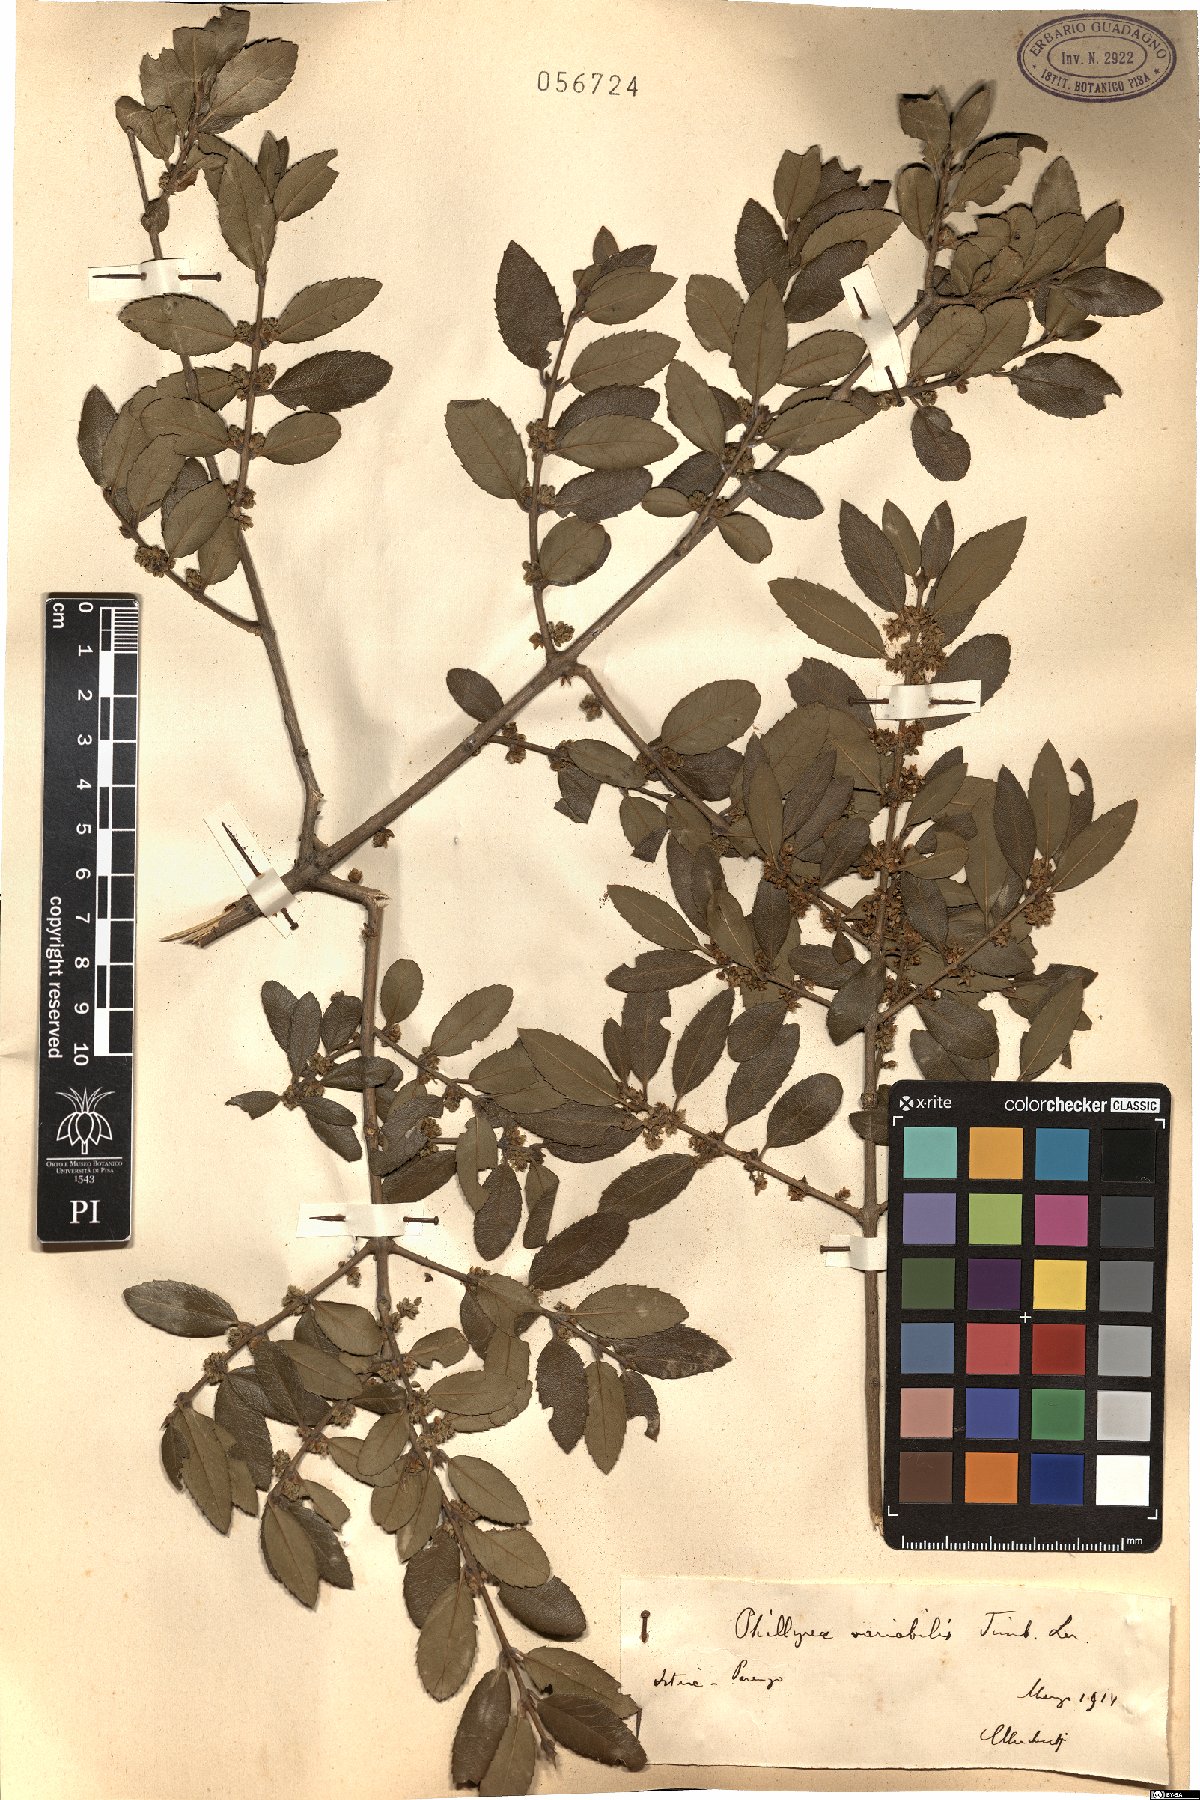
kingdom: Plantae
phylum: Tracheophyta
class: Magnoliopsida
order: Lamiales
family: Oleaceae
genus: Phillyrea
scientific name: Phillyrea latifolia
